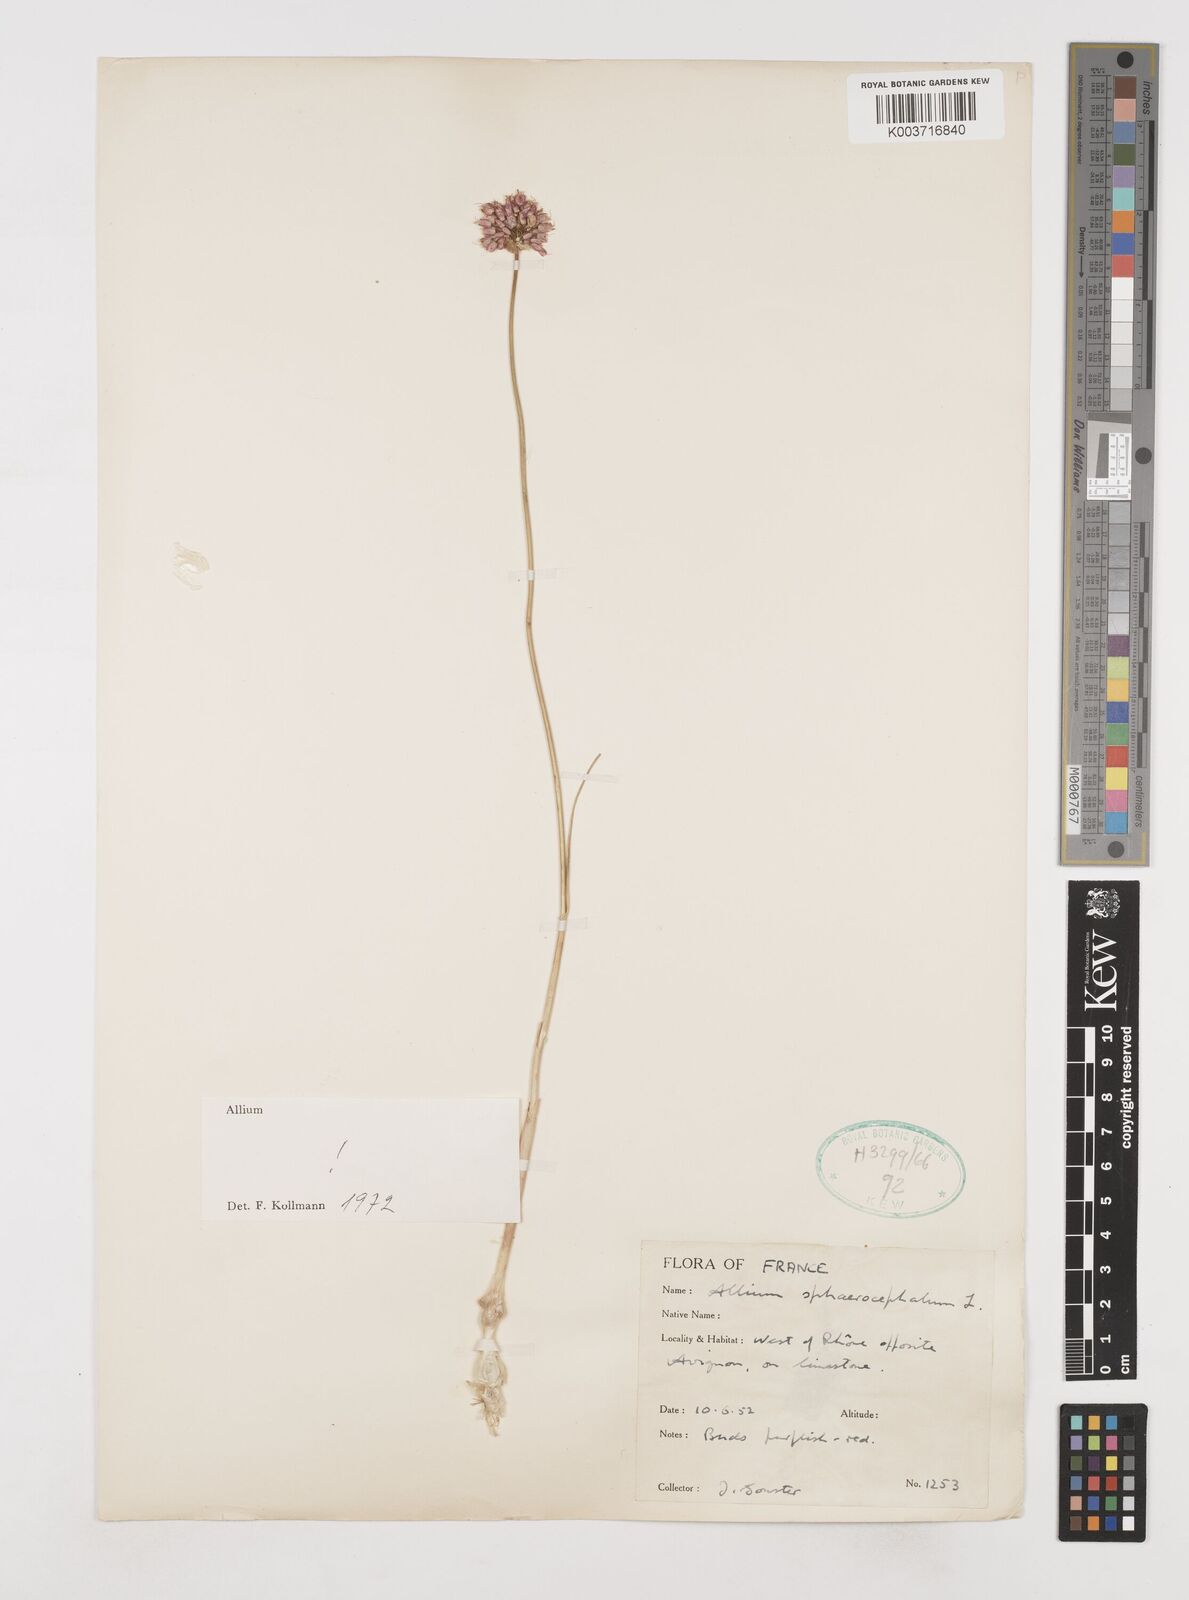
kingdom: Plantae
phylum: Tracheophyta
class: Liliopsida
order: Asparagales
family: Amaryllidaceae
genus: Allium
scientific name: Allium sphaerocephalon
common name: Round-headed leek
